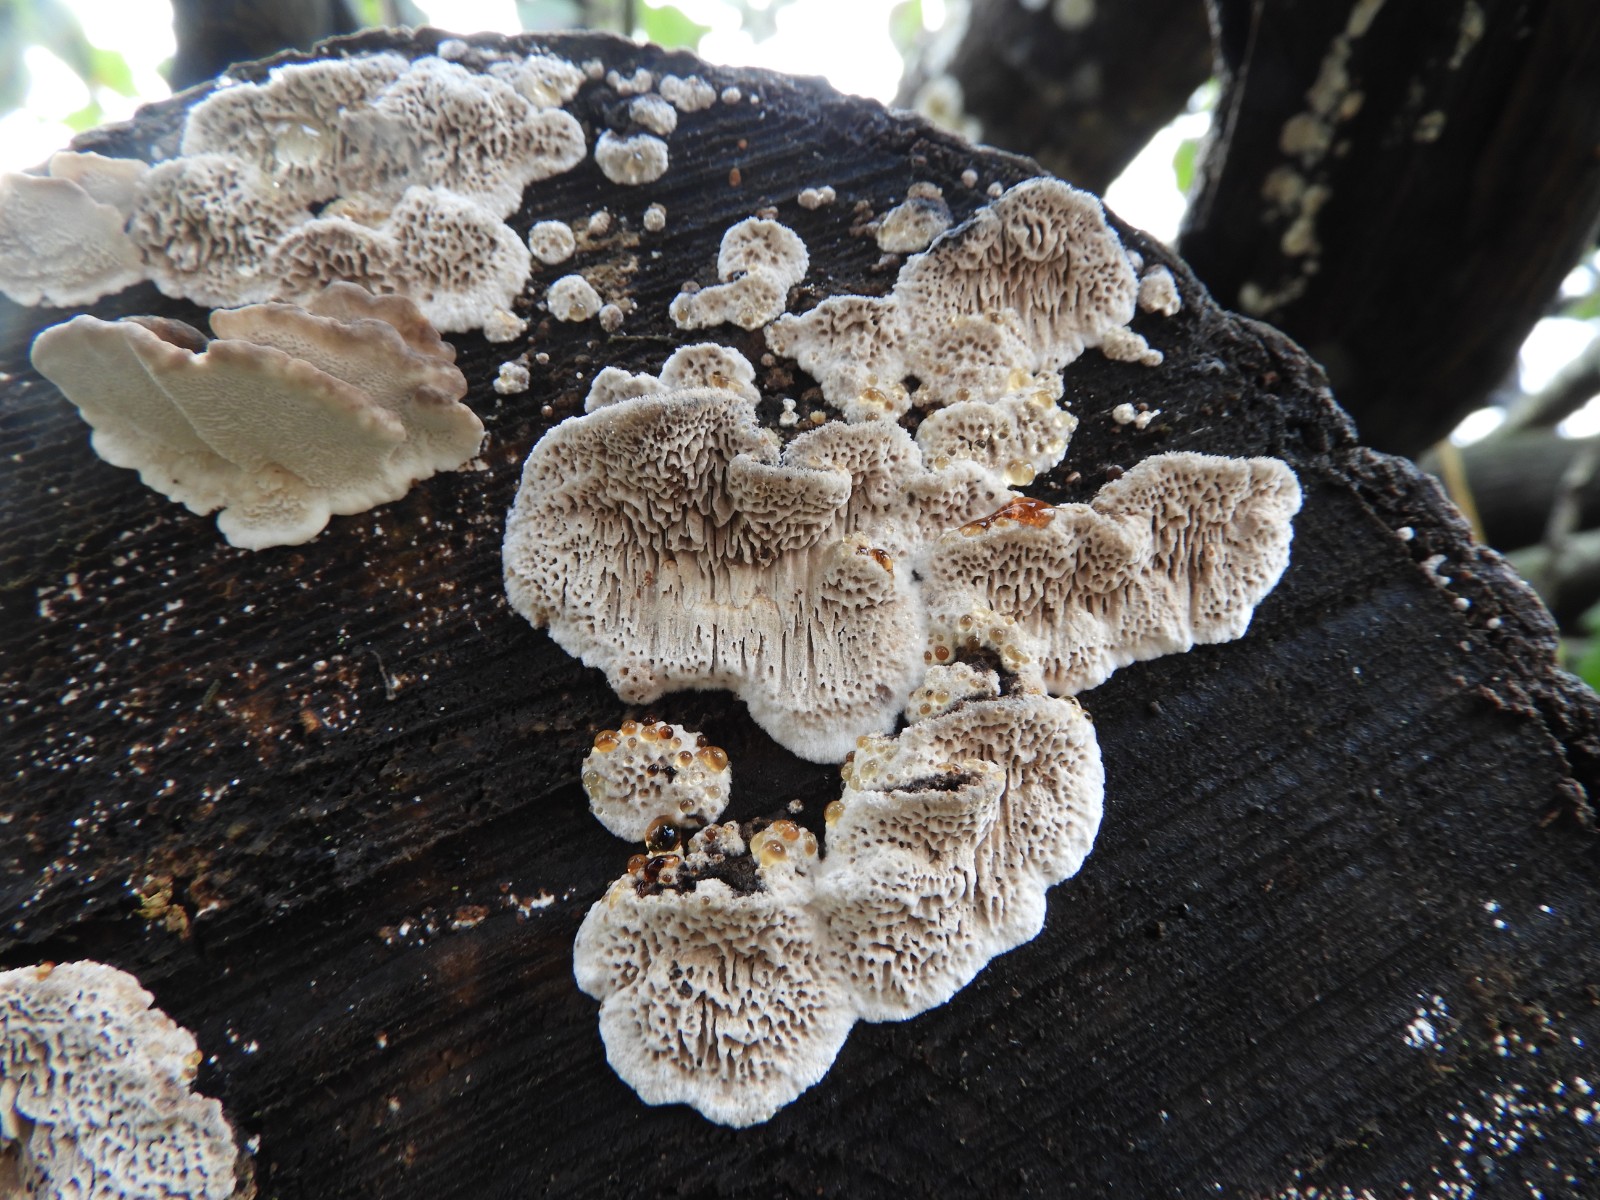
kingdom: Fungi
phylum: Basidiomycota
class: Agaricomycetes
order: Polyporales
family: Polyporaceae
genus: Podofomes
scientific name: Podofomes mollis
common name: blød begporesvamp
